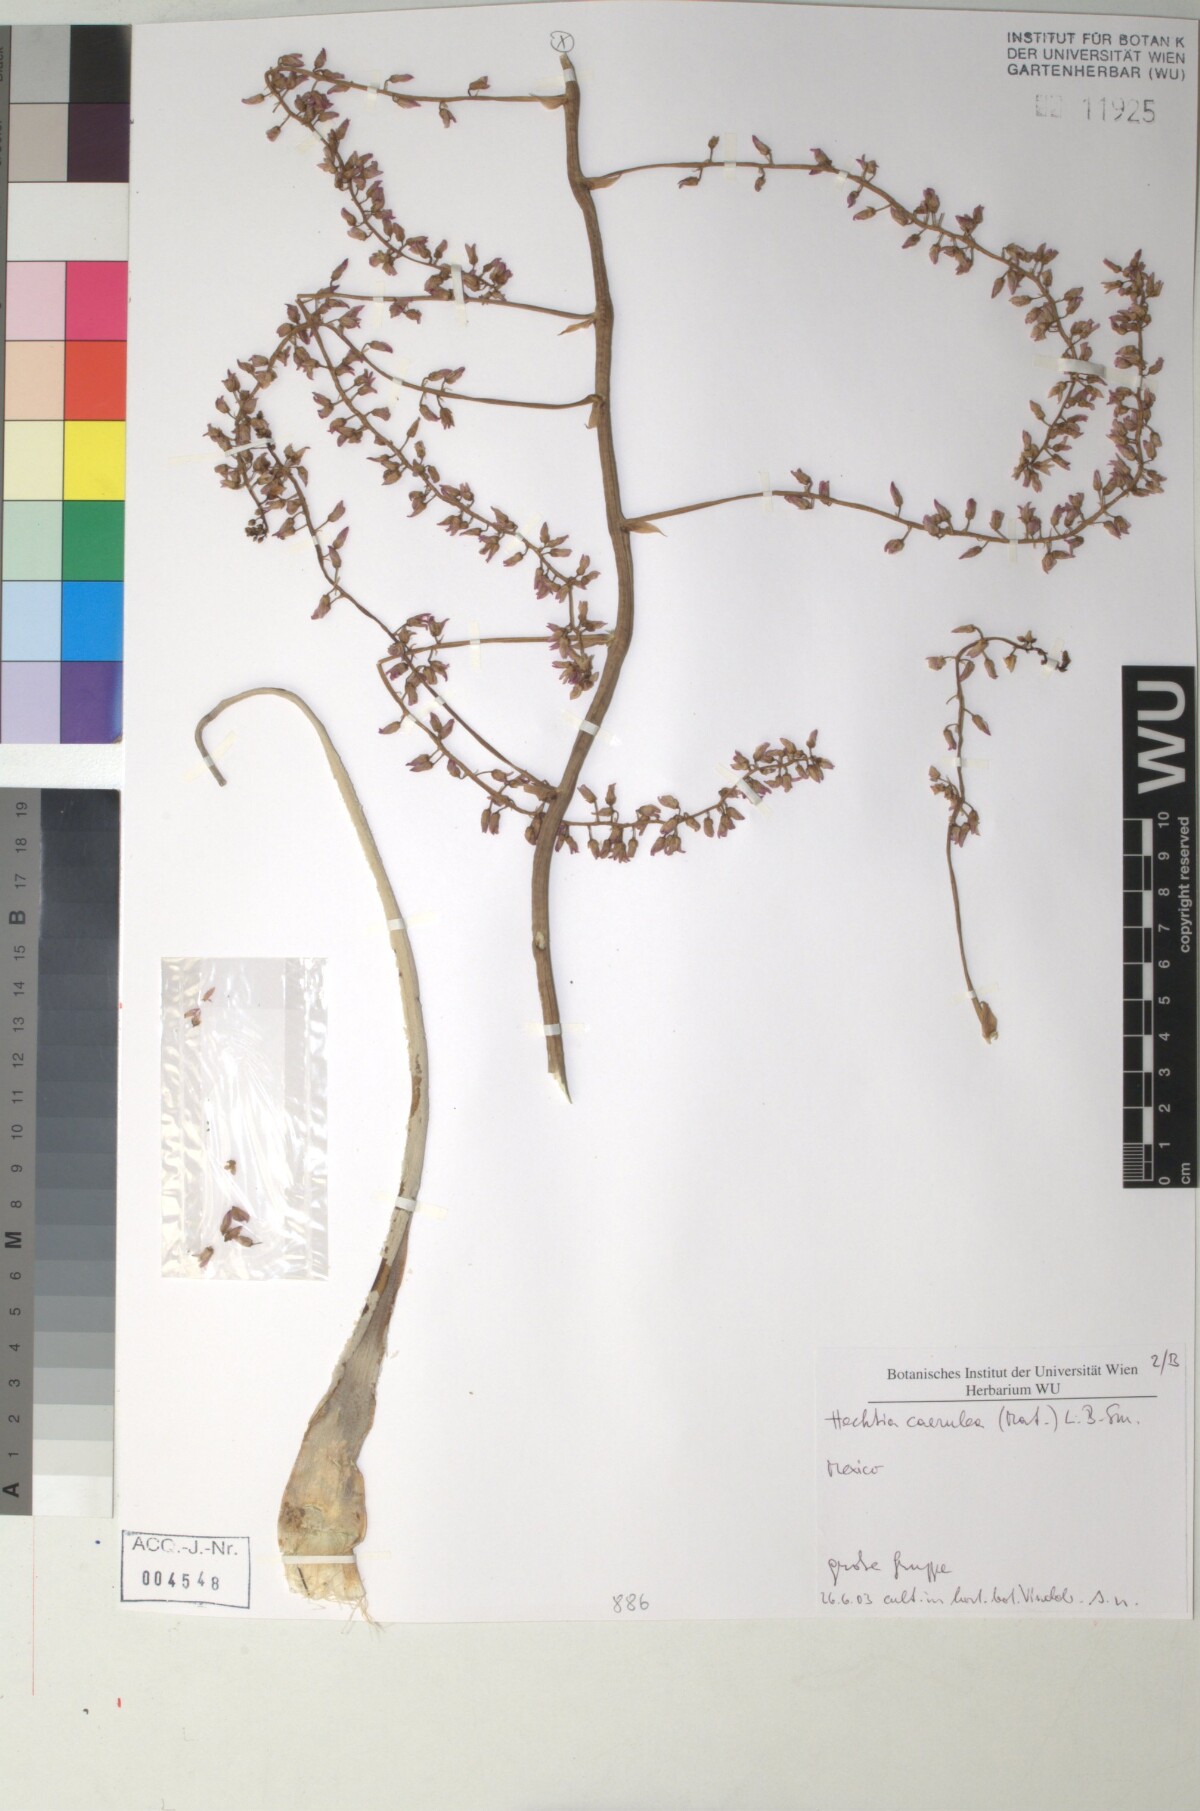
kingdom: Plantae
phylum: Tracheophyta
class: Liliopsida
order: Poales
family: Bromeliaceae
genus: Hechtia
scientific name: Hechtia
